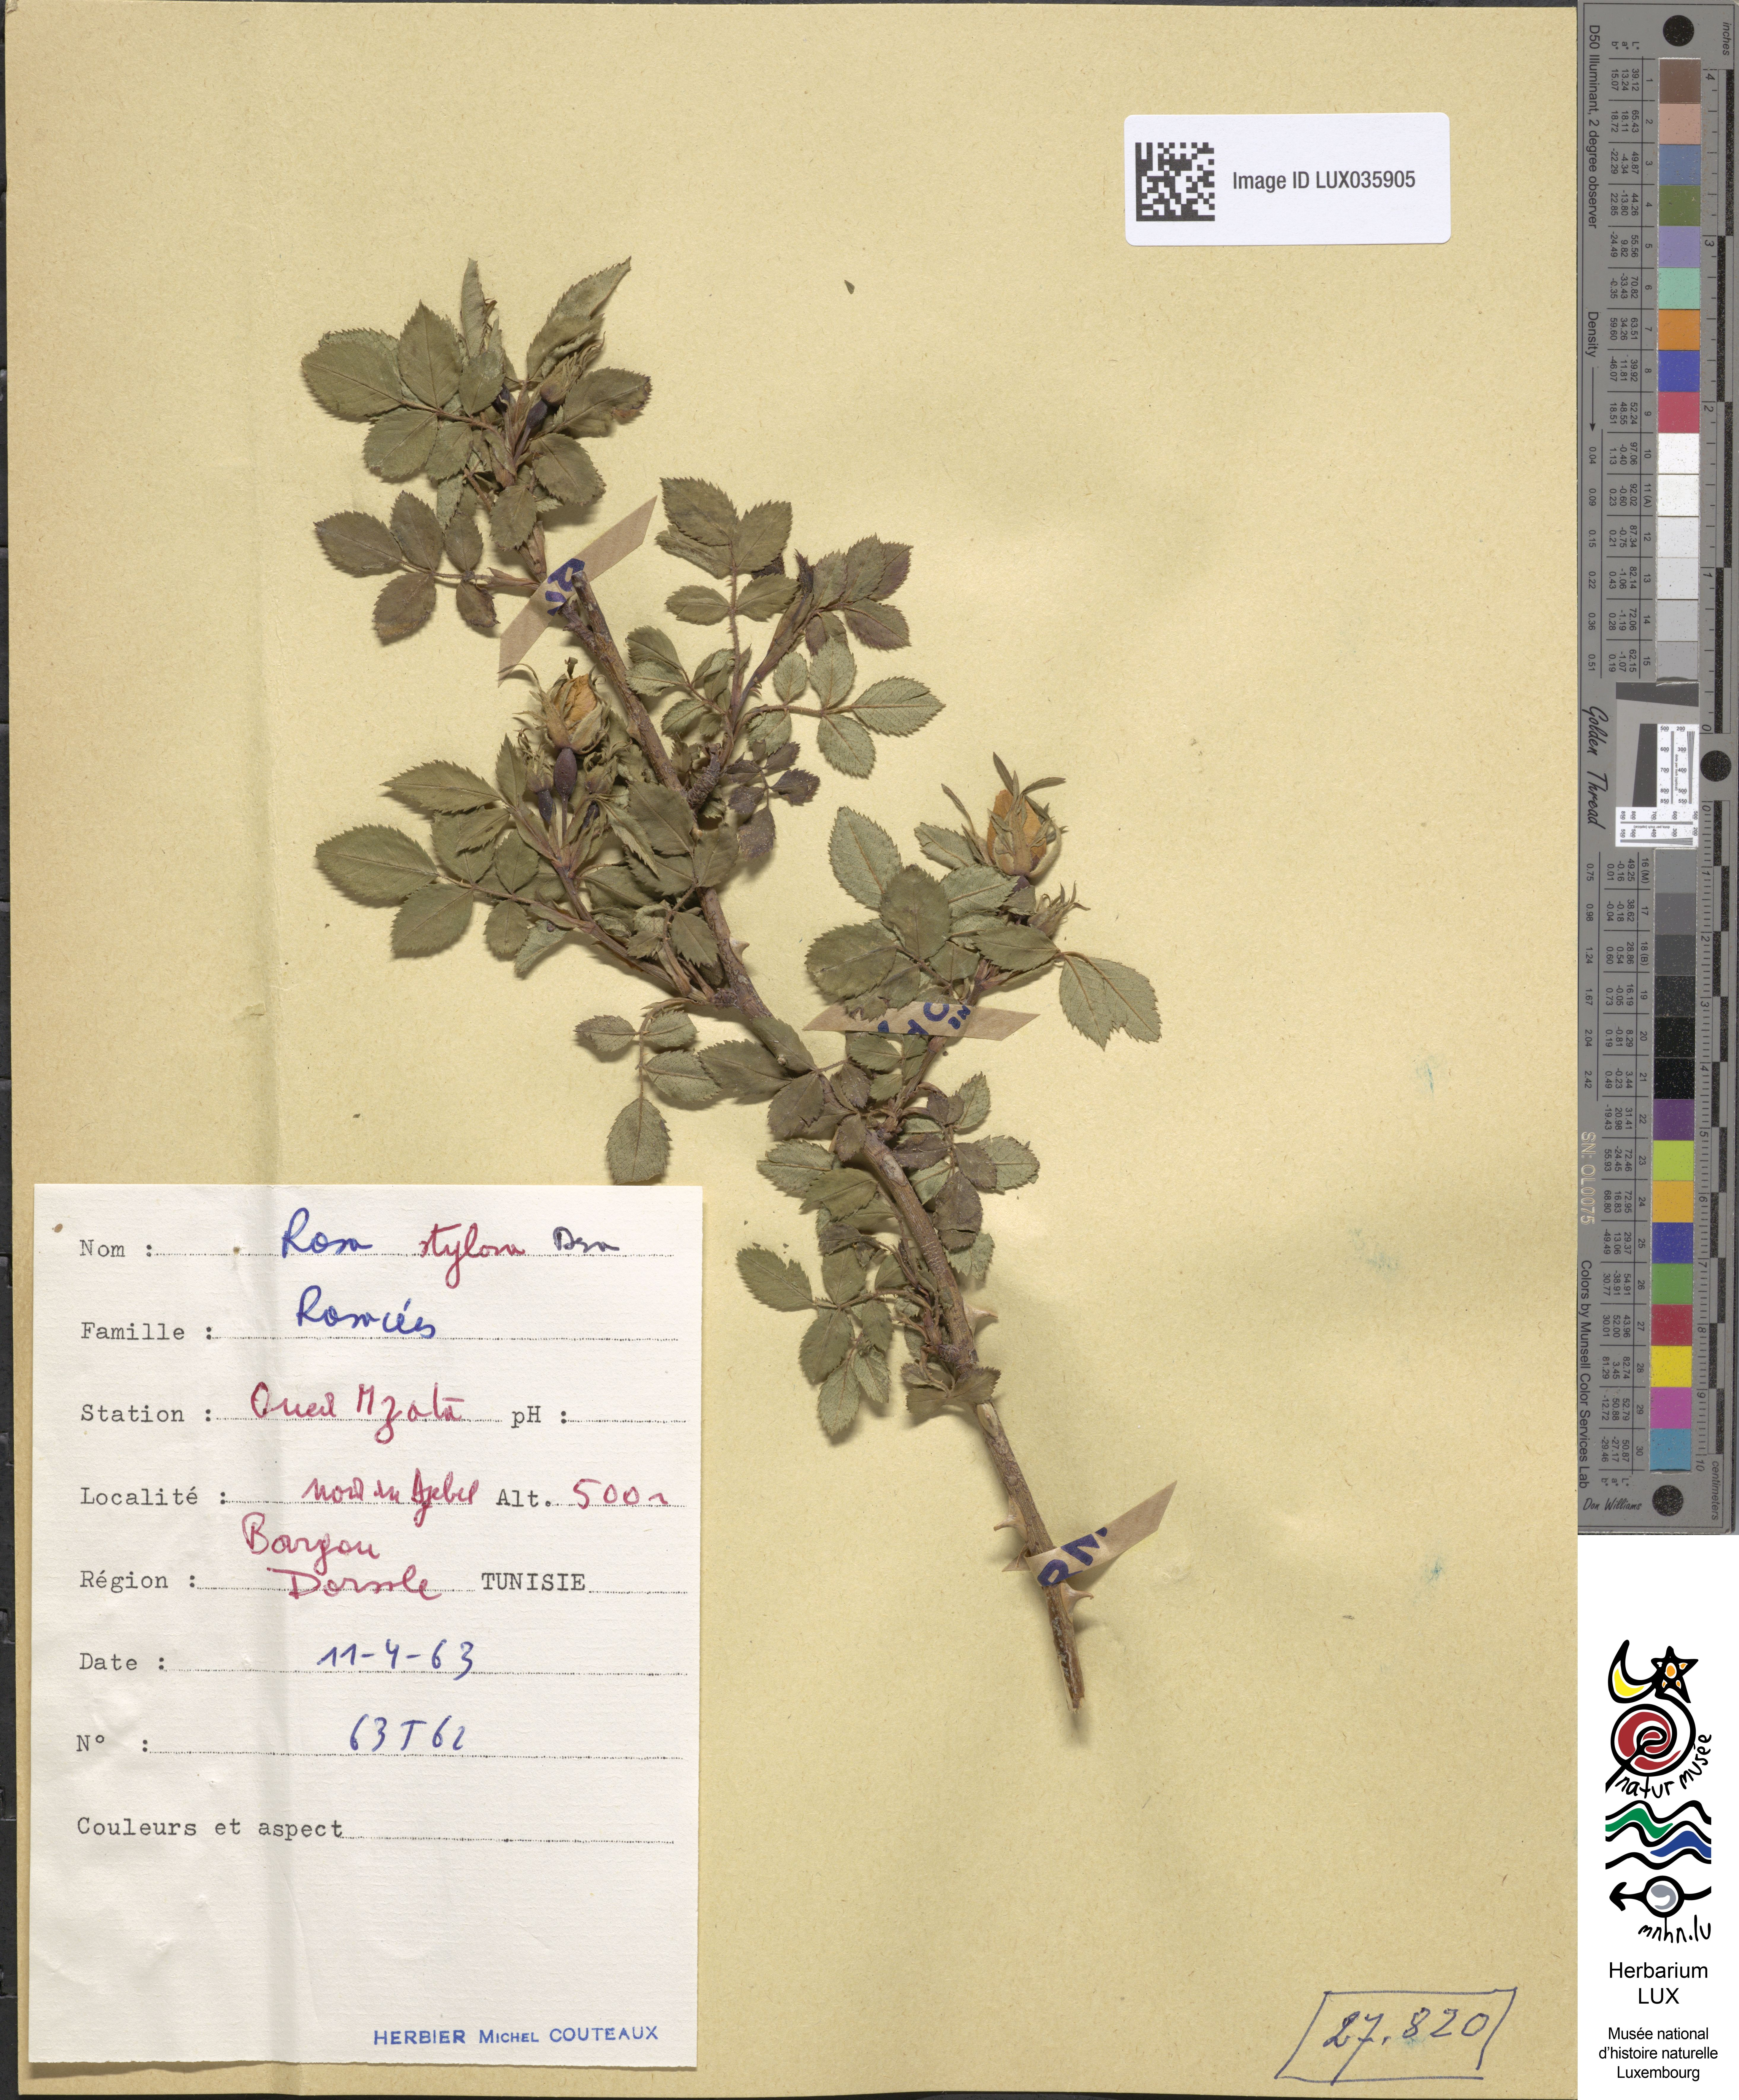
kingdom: Plantae
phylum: Tracheophyta
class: Magnoliopsida
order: Rosales
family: Rosaceae
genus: Rosa
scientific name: Rosa stylosa
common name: Short-styled field-rose
